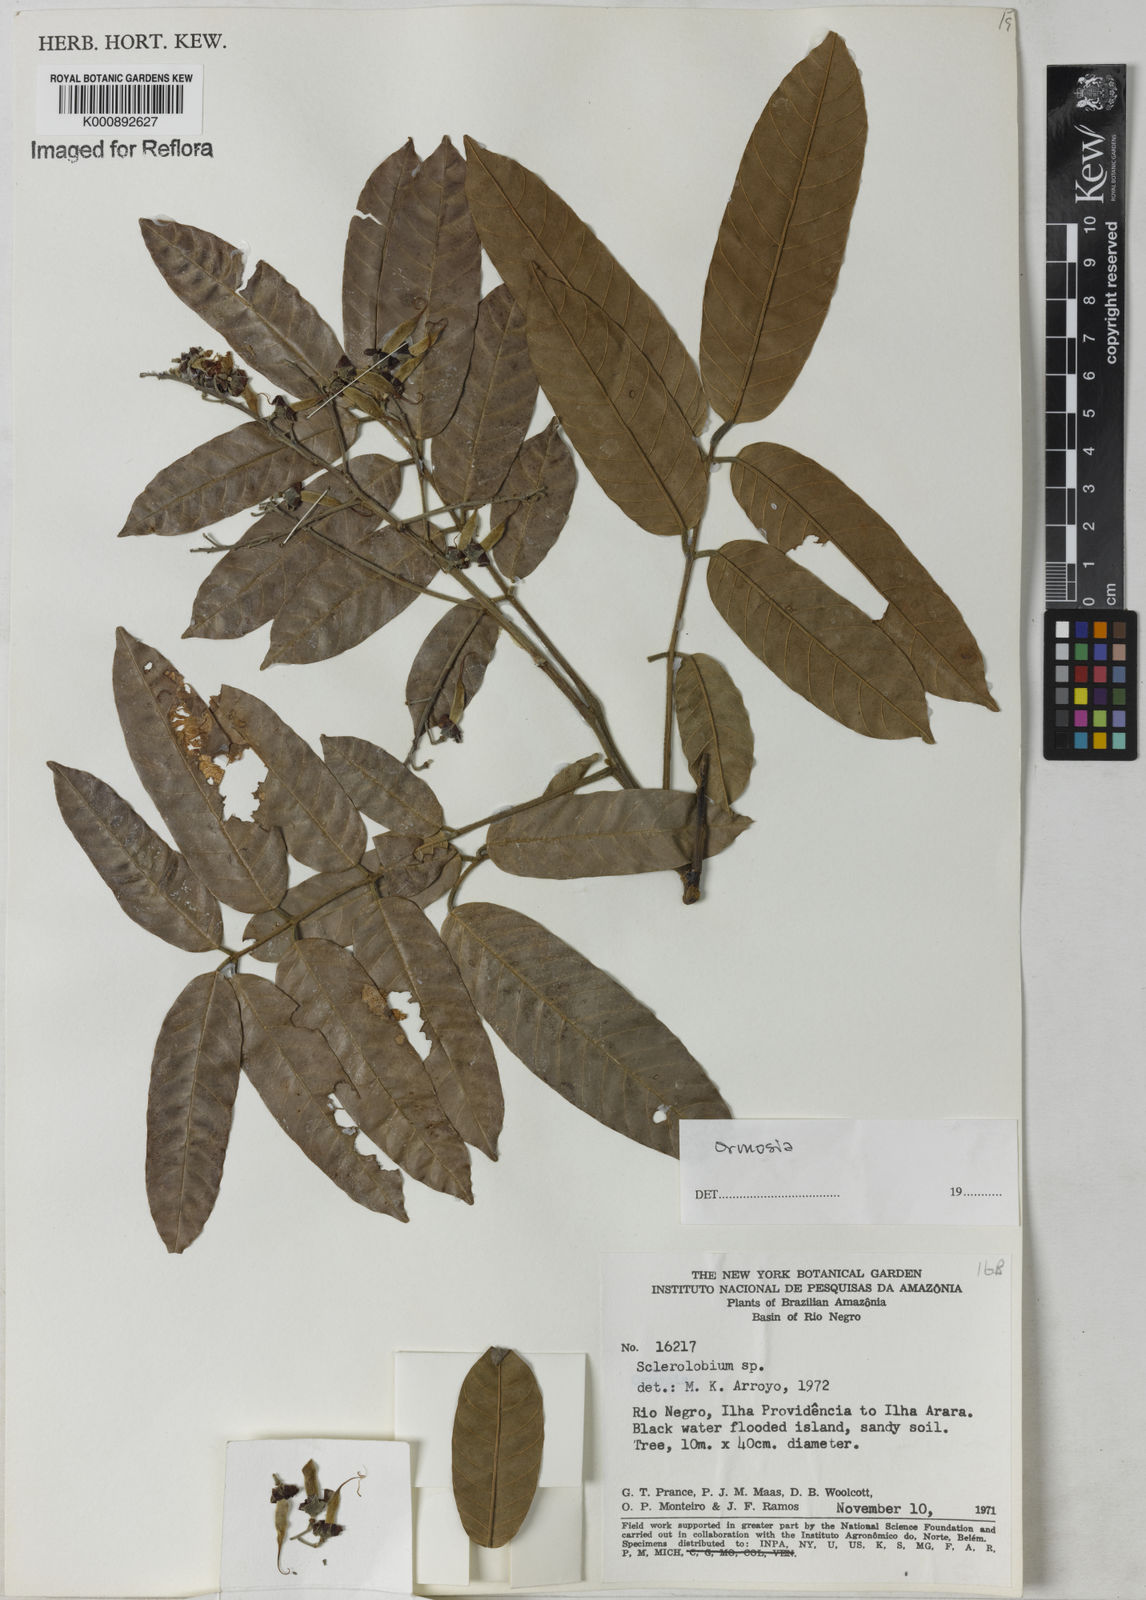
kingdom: Plantae
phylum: Tracheophyta
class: Magnoliopsida
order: Fabales
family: Fabaceae
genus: Ormosia
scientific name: Ormosia
